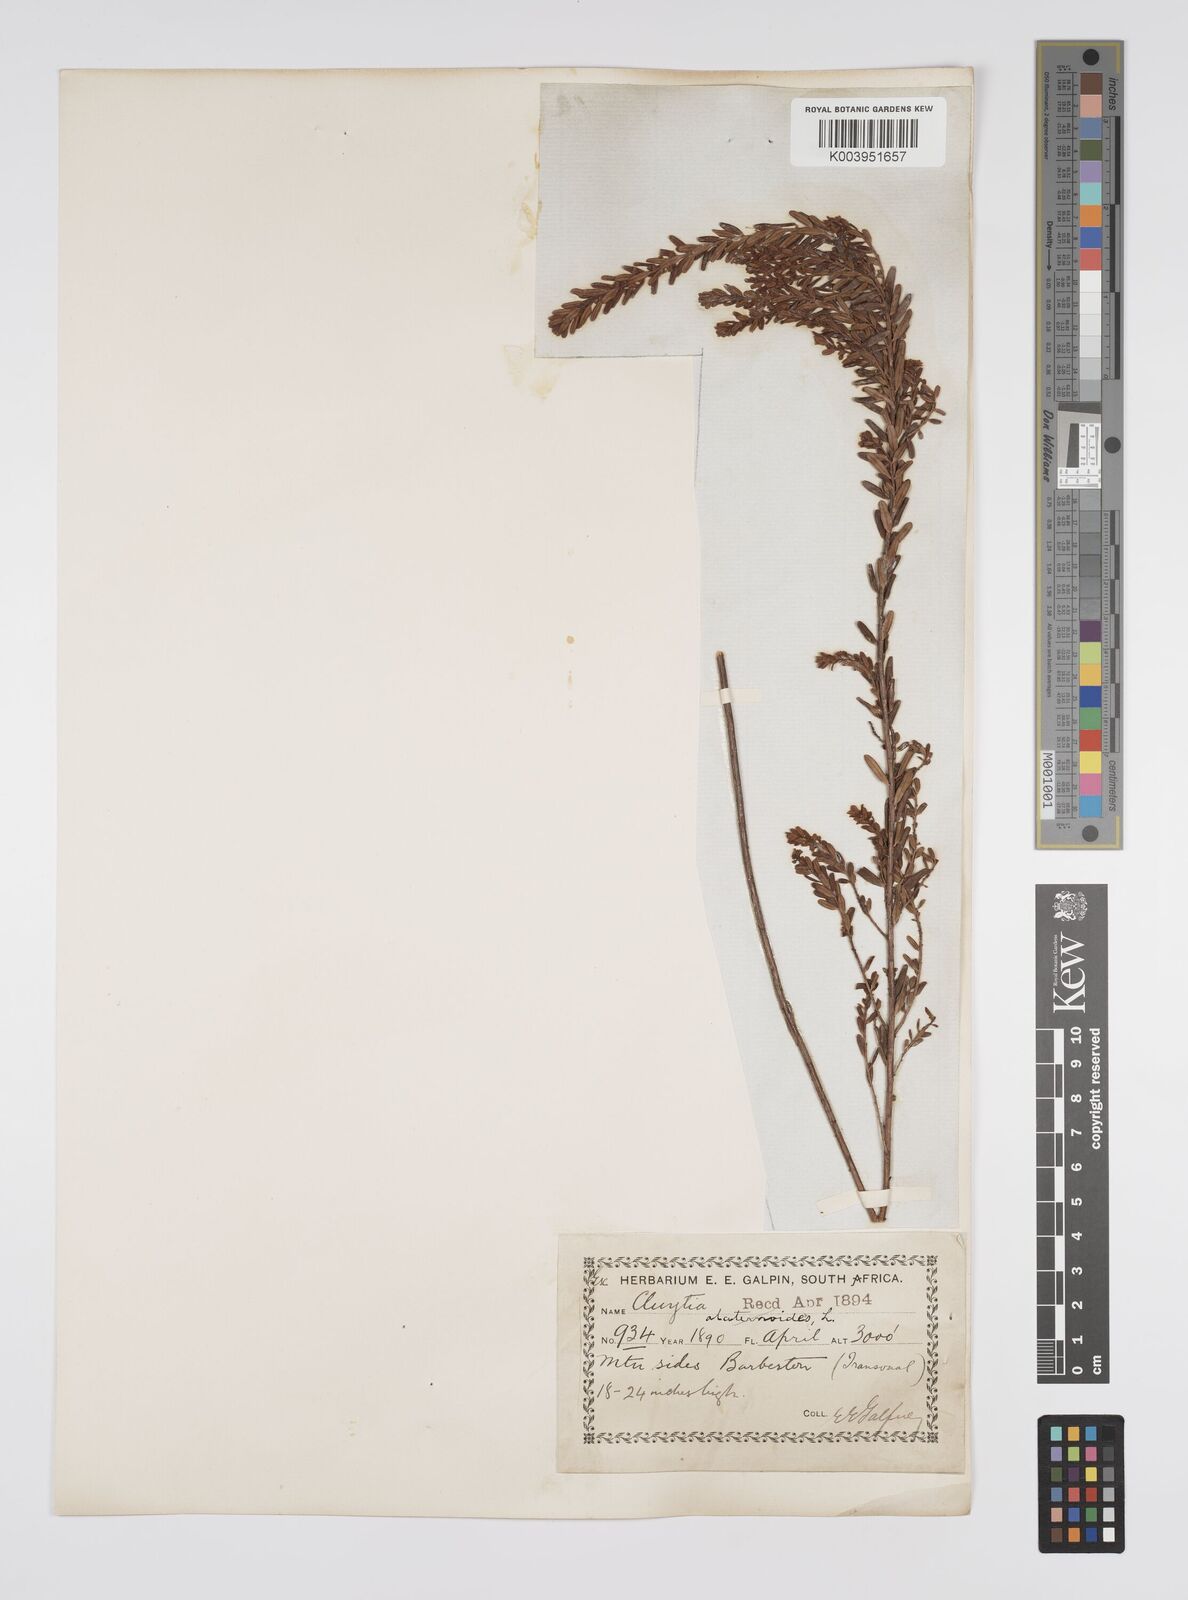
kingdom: Plantae
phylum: Tracheophyta
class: Magnoliopsida
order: Malpighiales
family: Peraceae
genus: Clutia
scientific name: Clutia laxa
